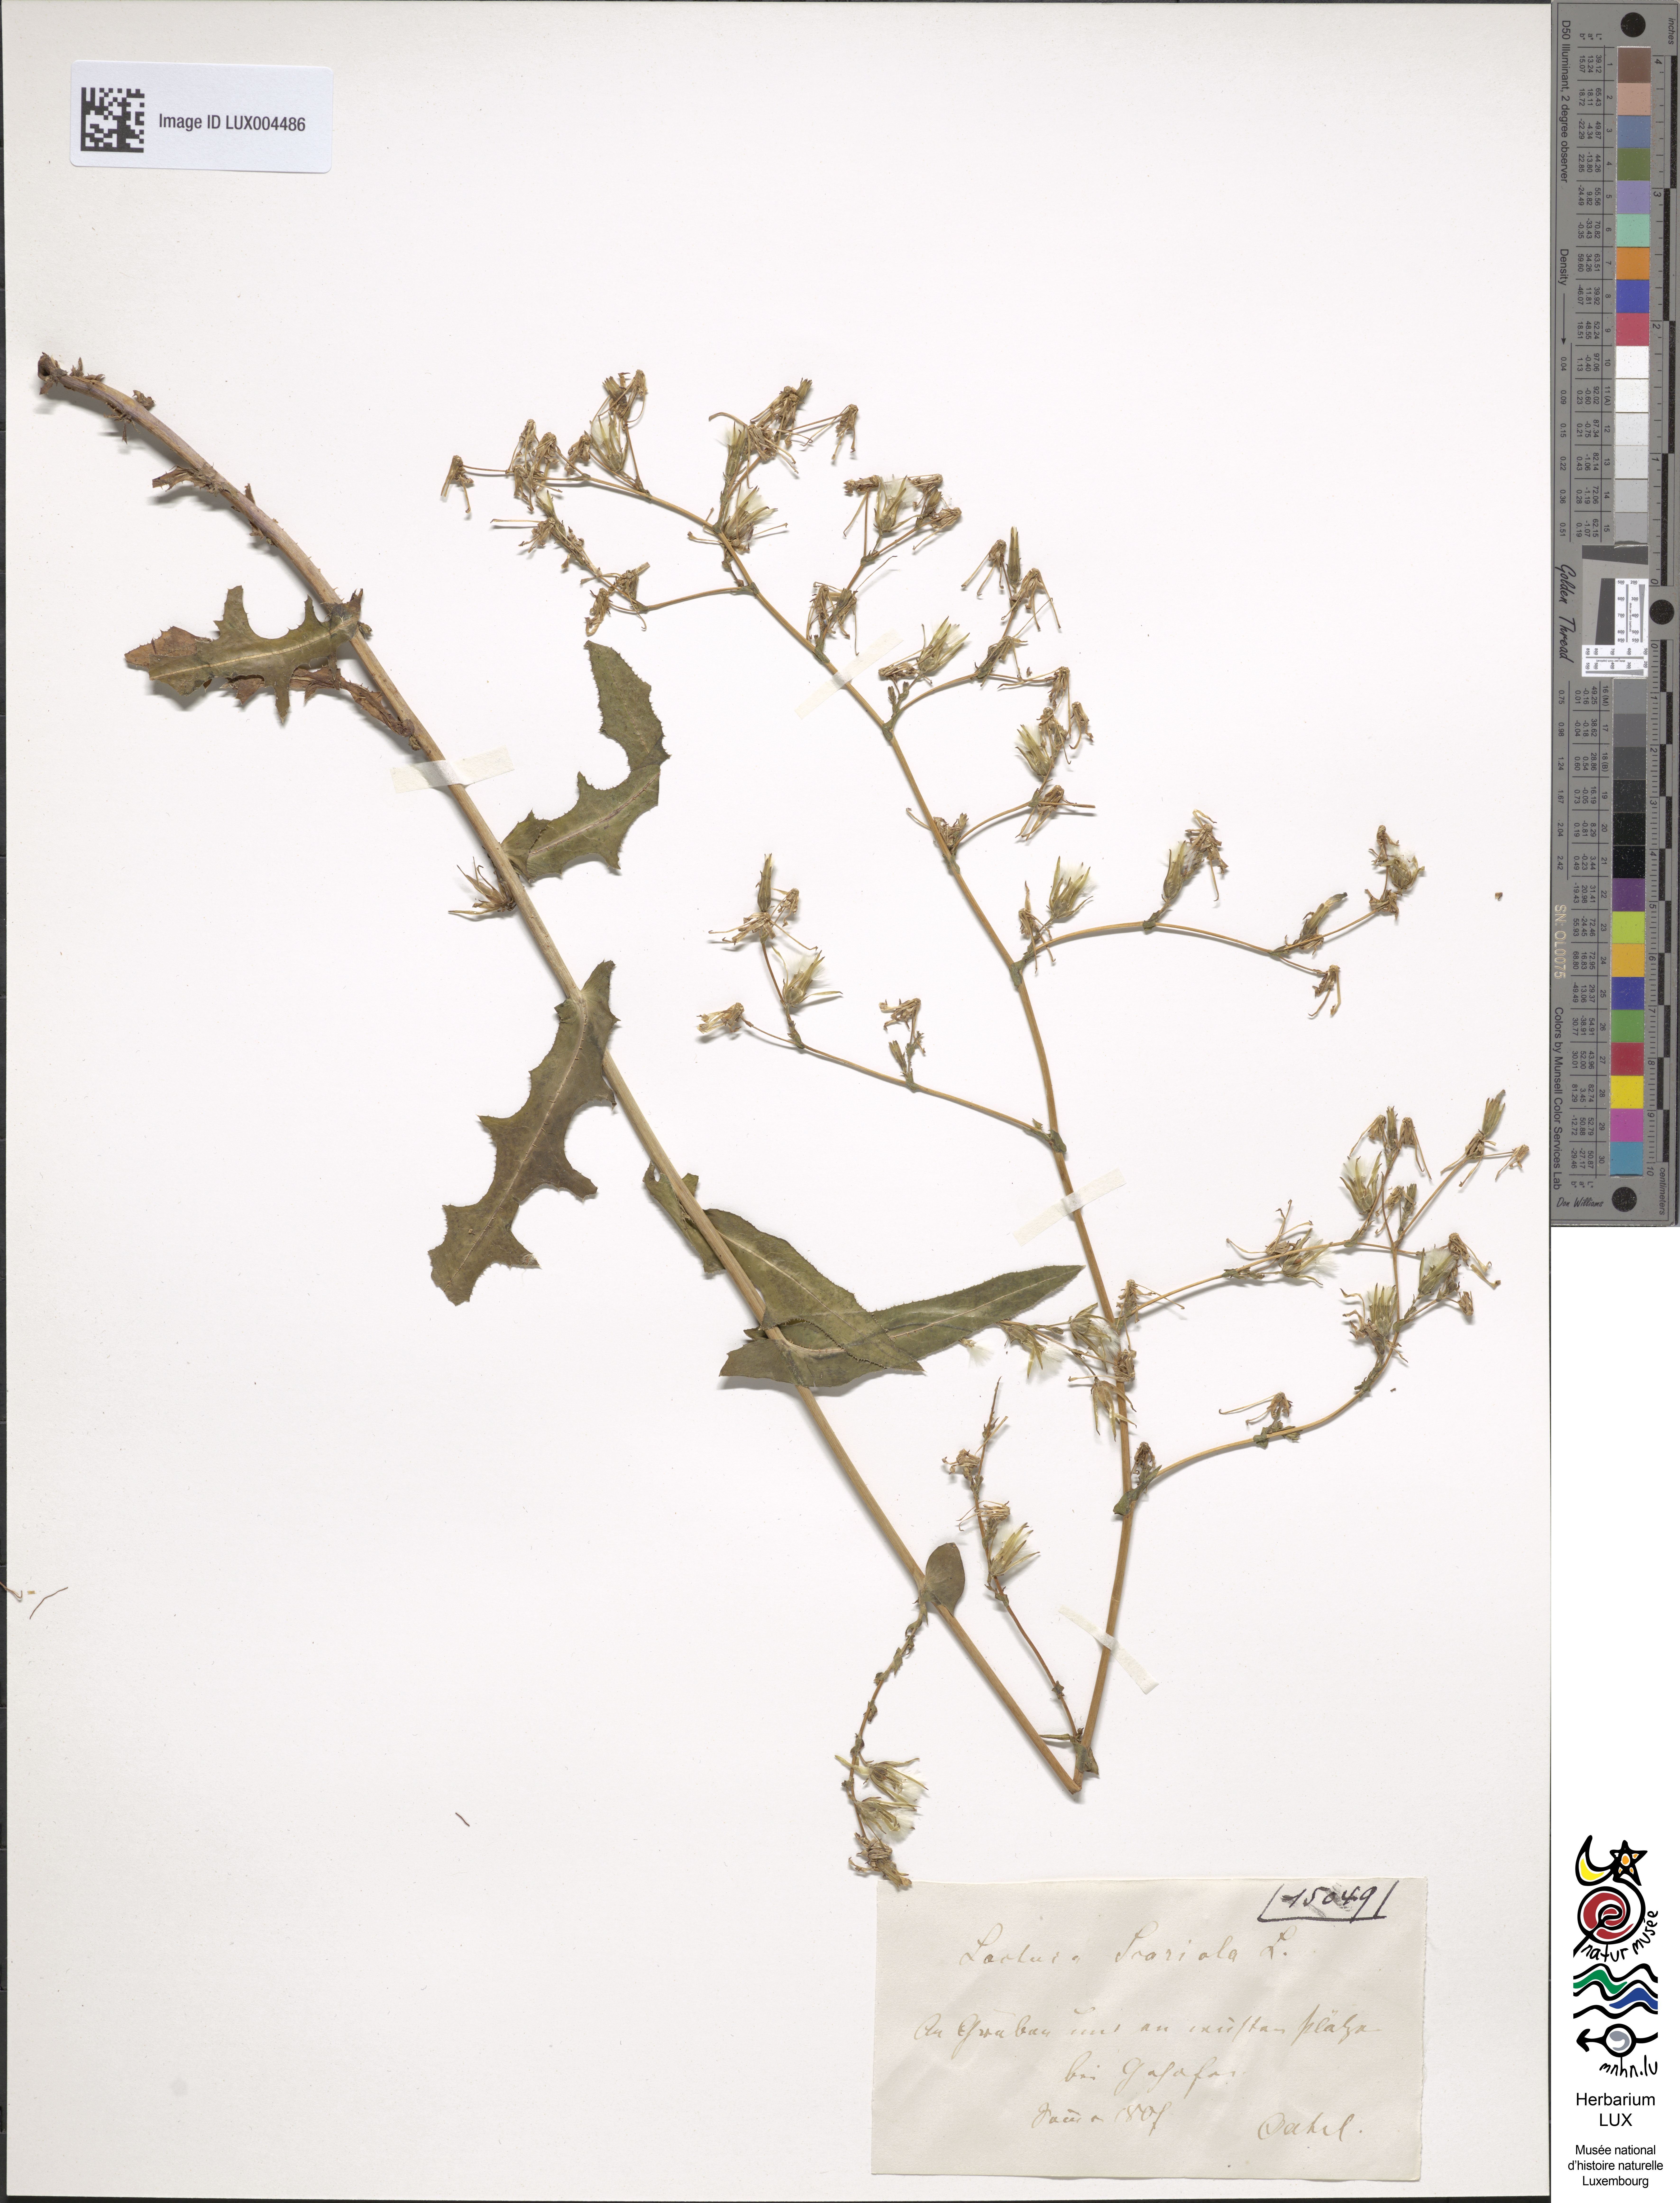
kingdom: Plantae
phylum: Tracheophyta
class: Magnoliopsida
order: Asterales
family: Asteraceae
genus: Lactuca
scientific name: Lactuca serriola
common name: Prickly lettuce
